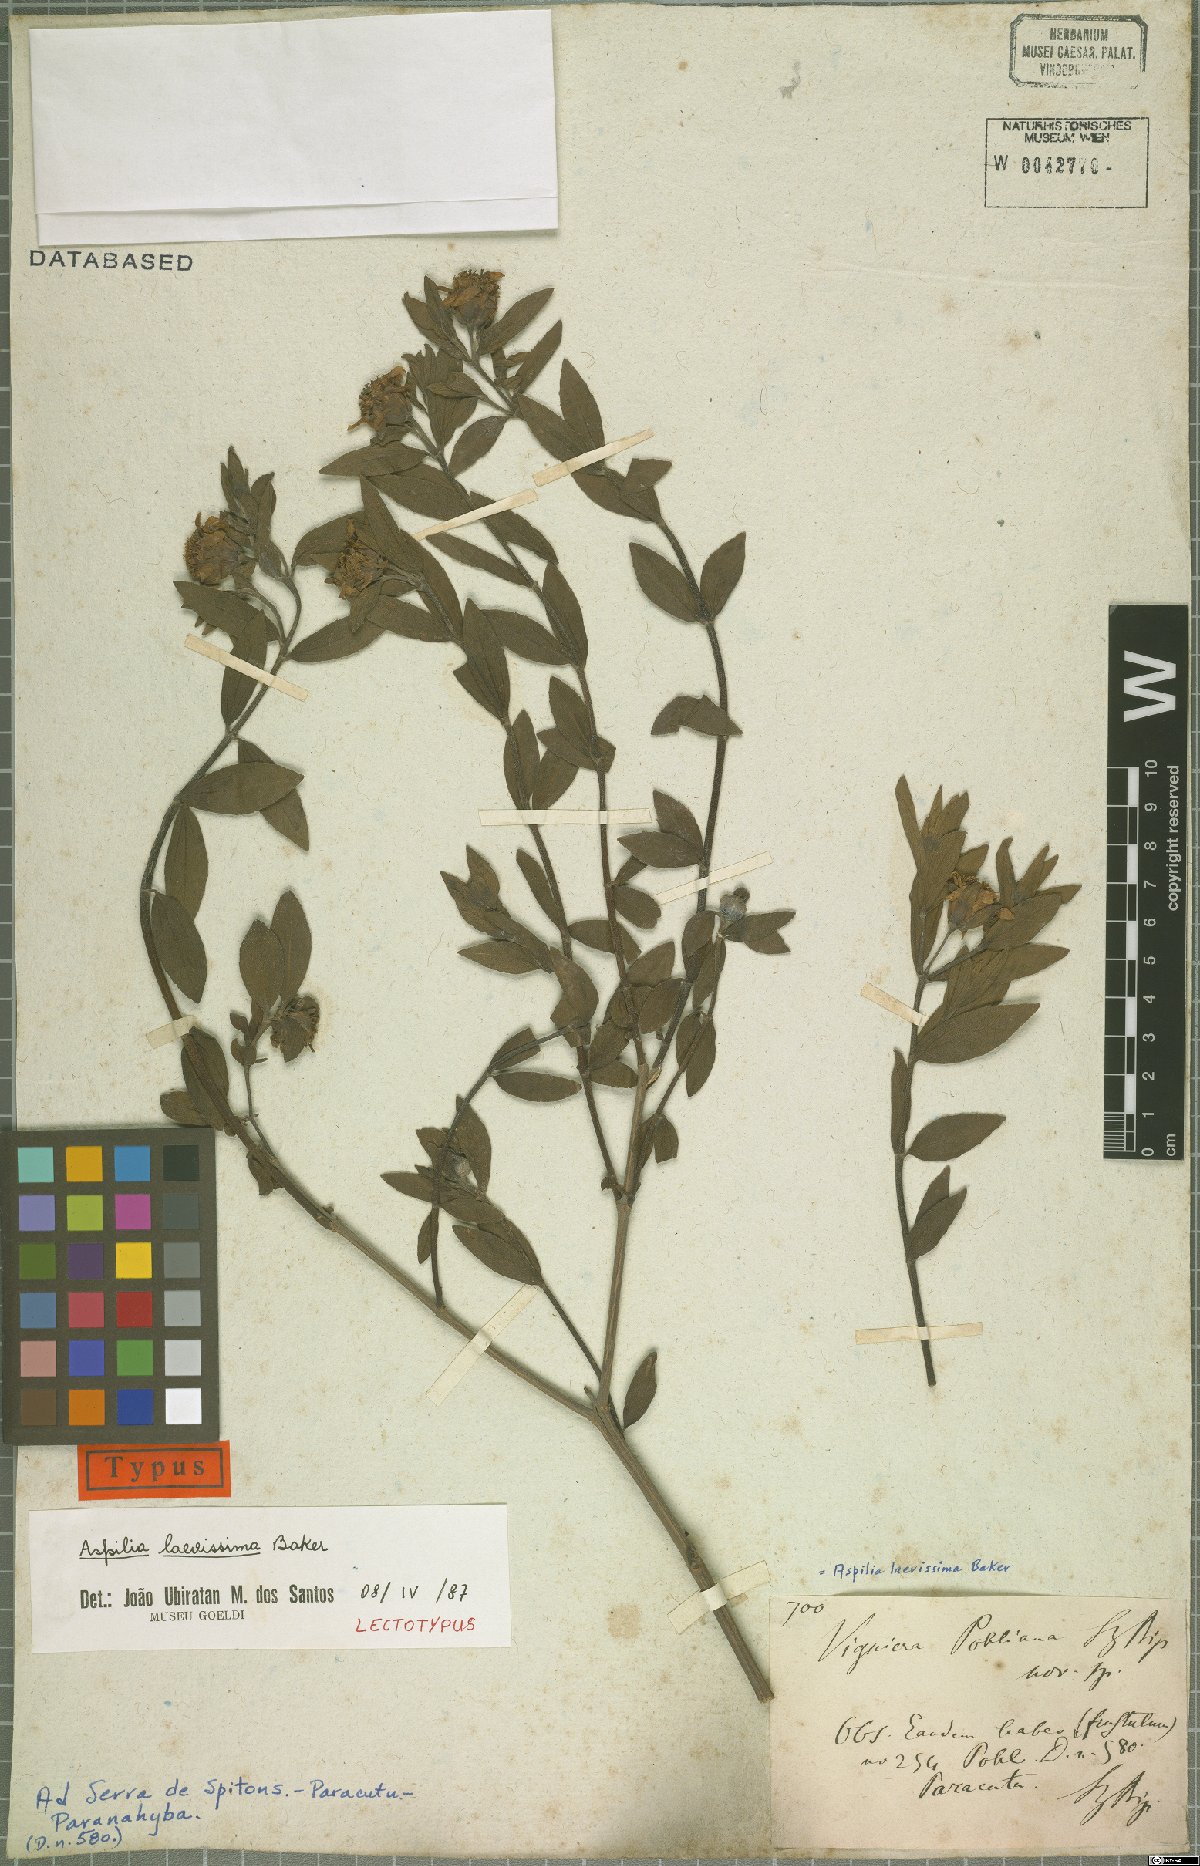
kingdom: Plantae
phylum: Tracheophyta
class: Magnoliopsida
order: Asterales
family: Asteraceae
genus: Wedelia
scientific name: Wedelia laevissima
